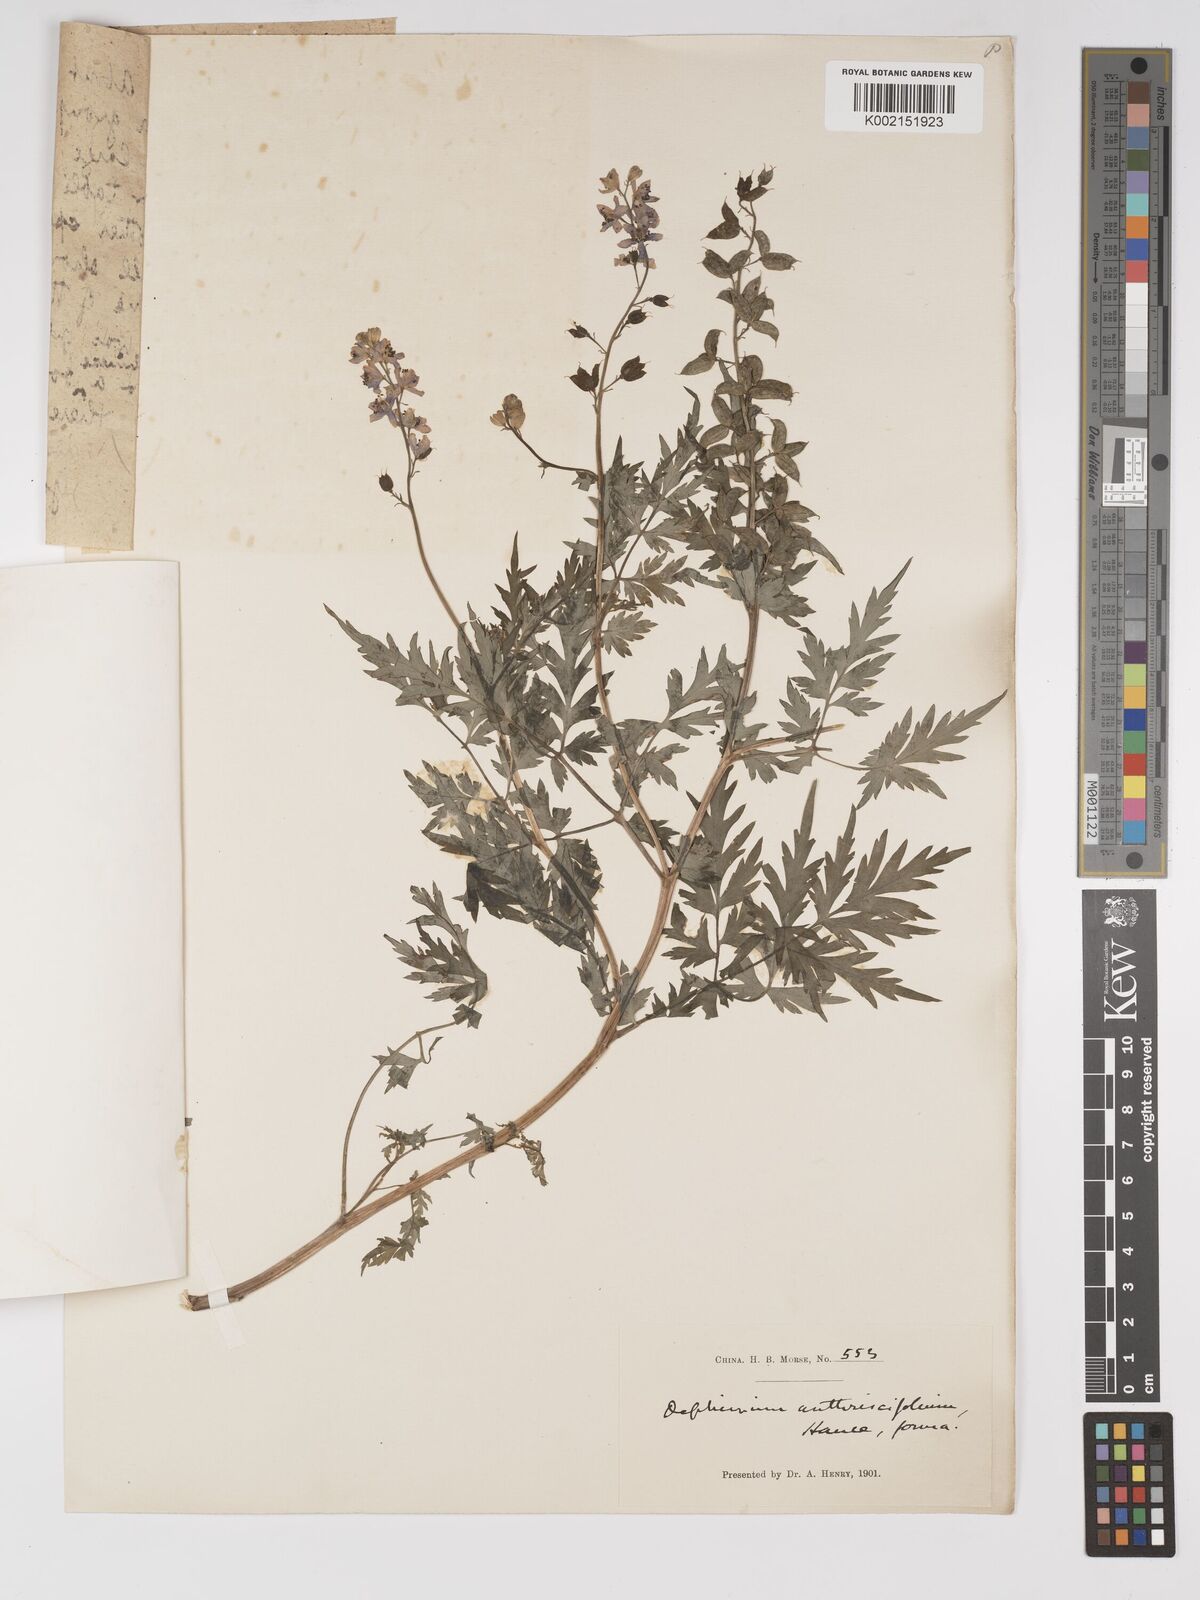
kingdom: Plantae
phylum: Tracheophyta
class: Magnoliopsida
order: Ranunculales
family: Ranunculaceae
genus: Delphinium
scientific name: Delphinium anthriscifolium
